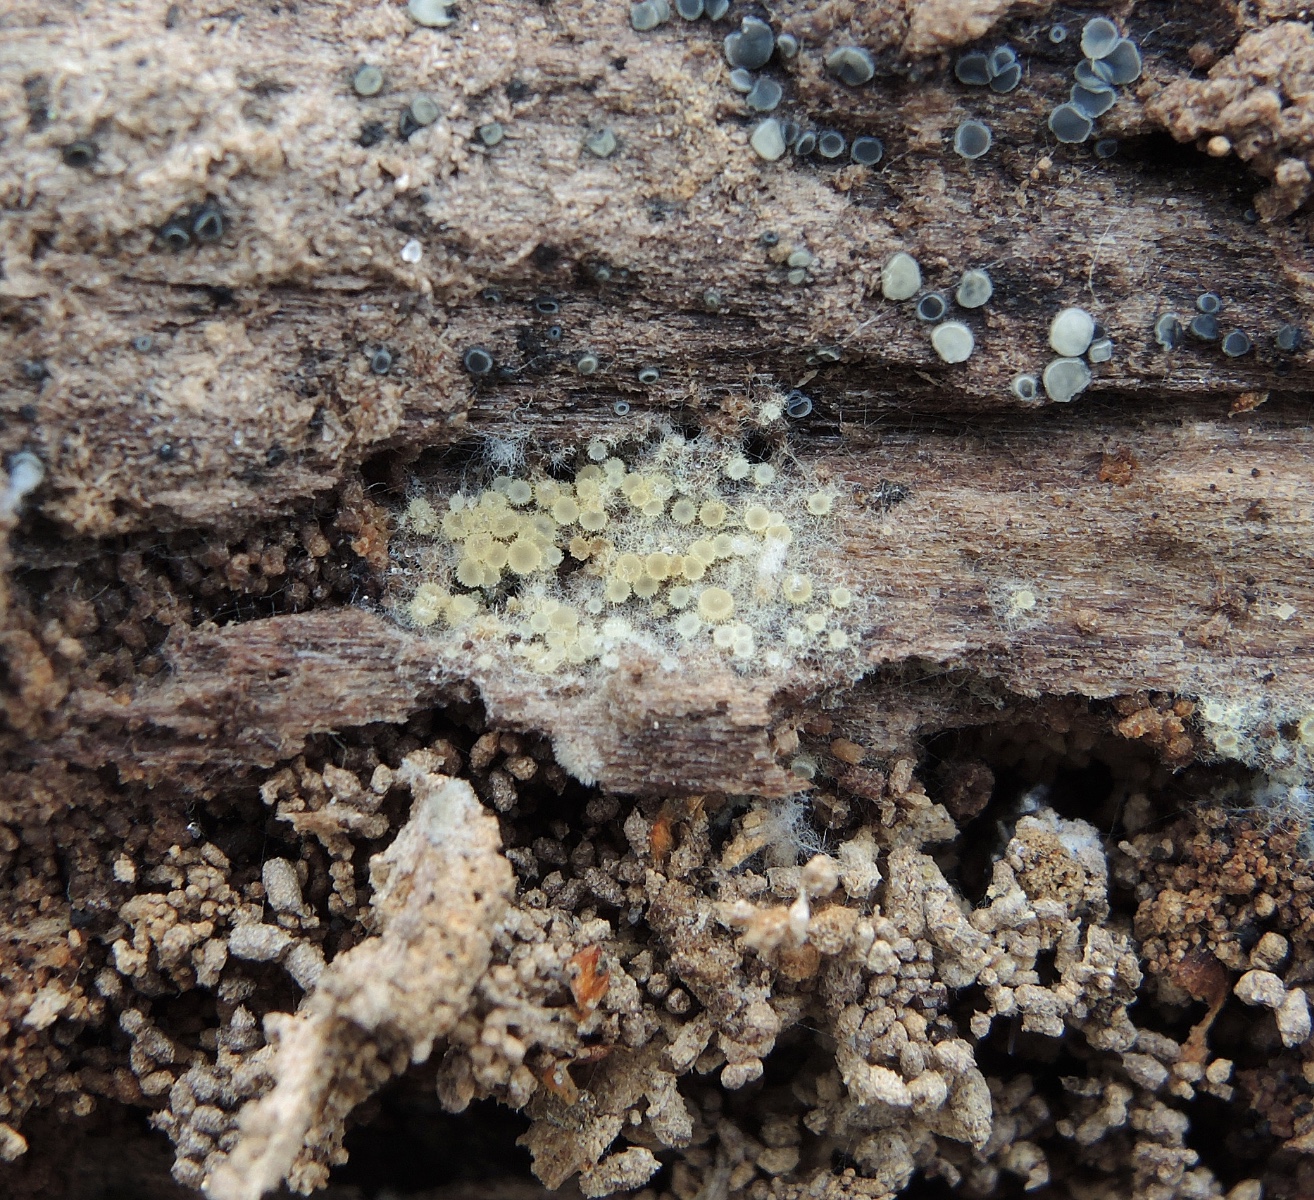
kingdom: Fungi
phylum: Ascomycota
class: Leotiomycetes
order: Helotiales
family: Arachnopezizaceae
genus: Arachnopeziza
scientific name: Arachnopeziza aurata
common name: bleggul spindskive
